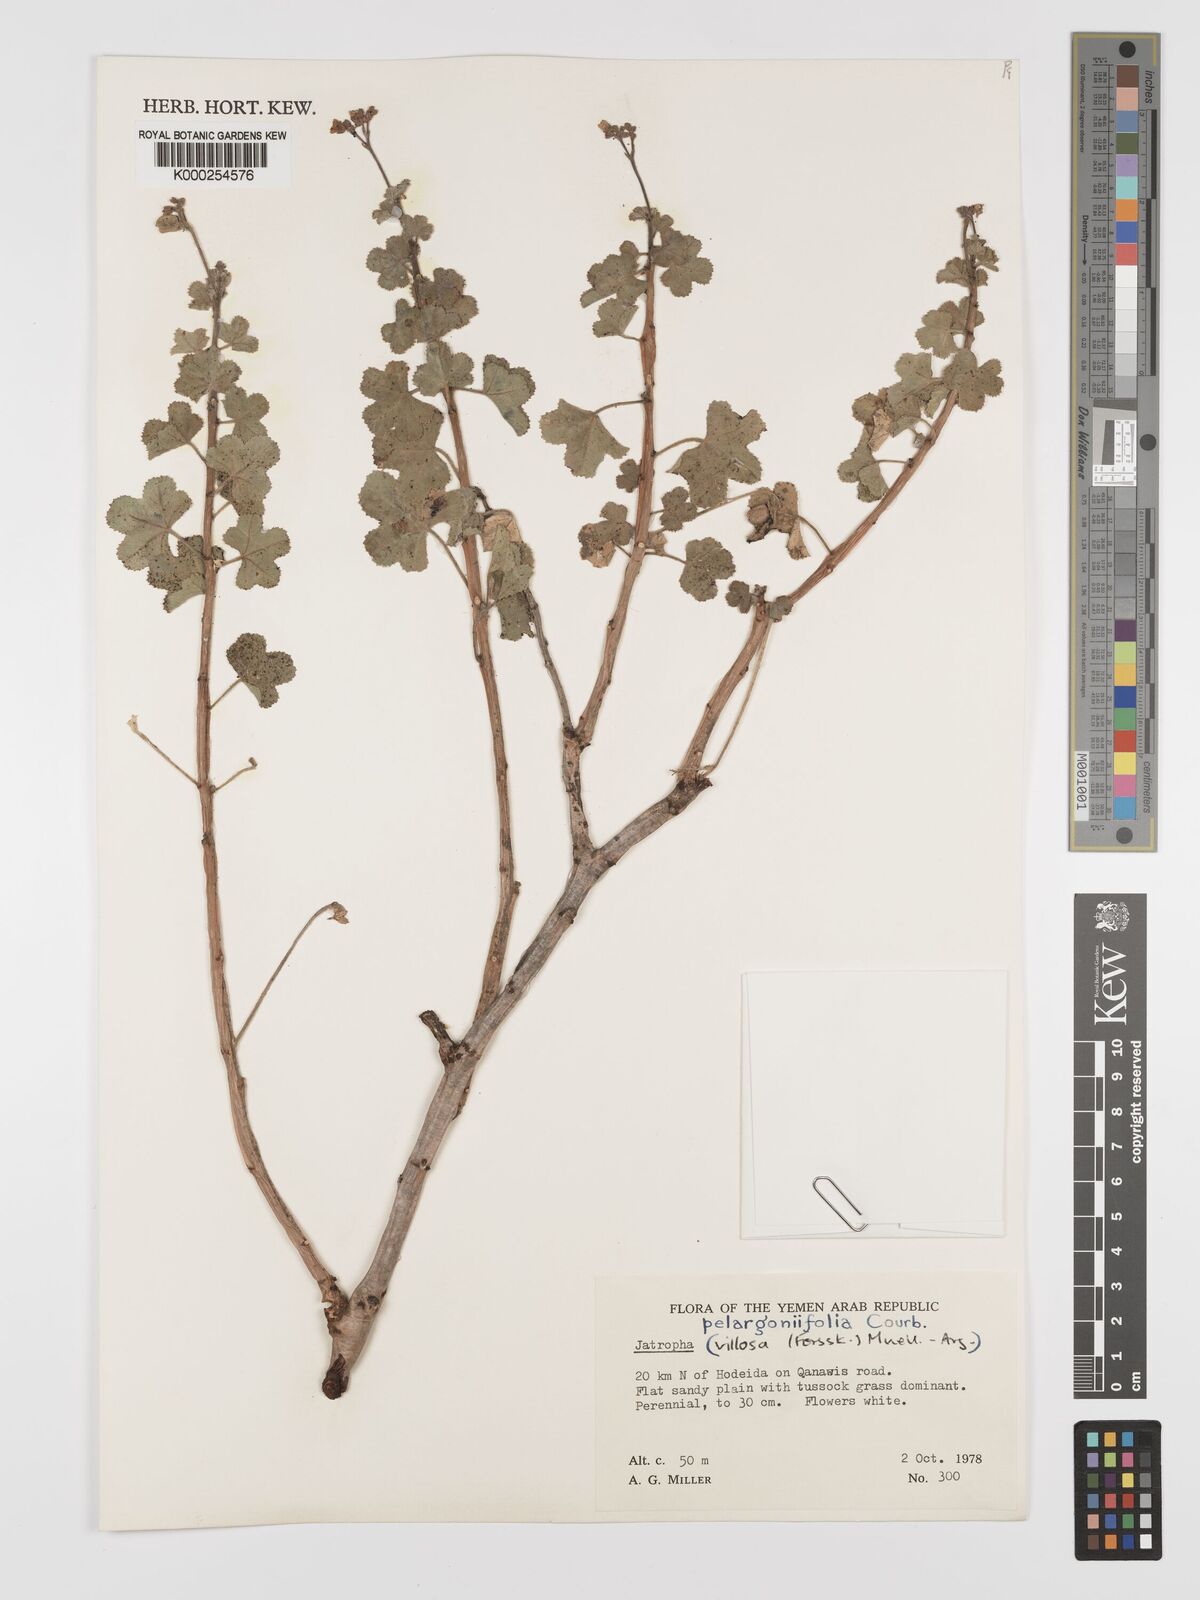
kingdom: Plantae
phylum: Tracheophyta
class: Magnoliopsida
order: Malpighiales
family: Euphorbiaceae
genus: Jatropha
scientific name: Jatropha pelargoniifolia
